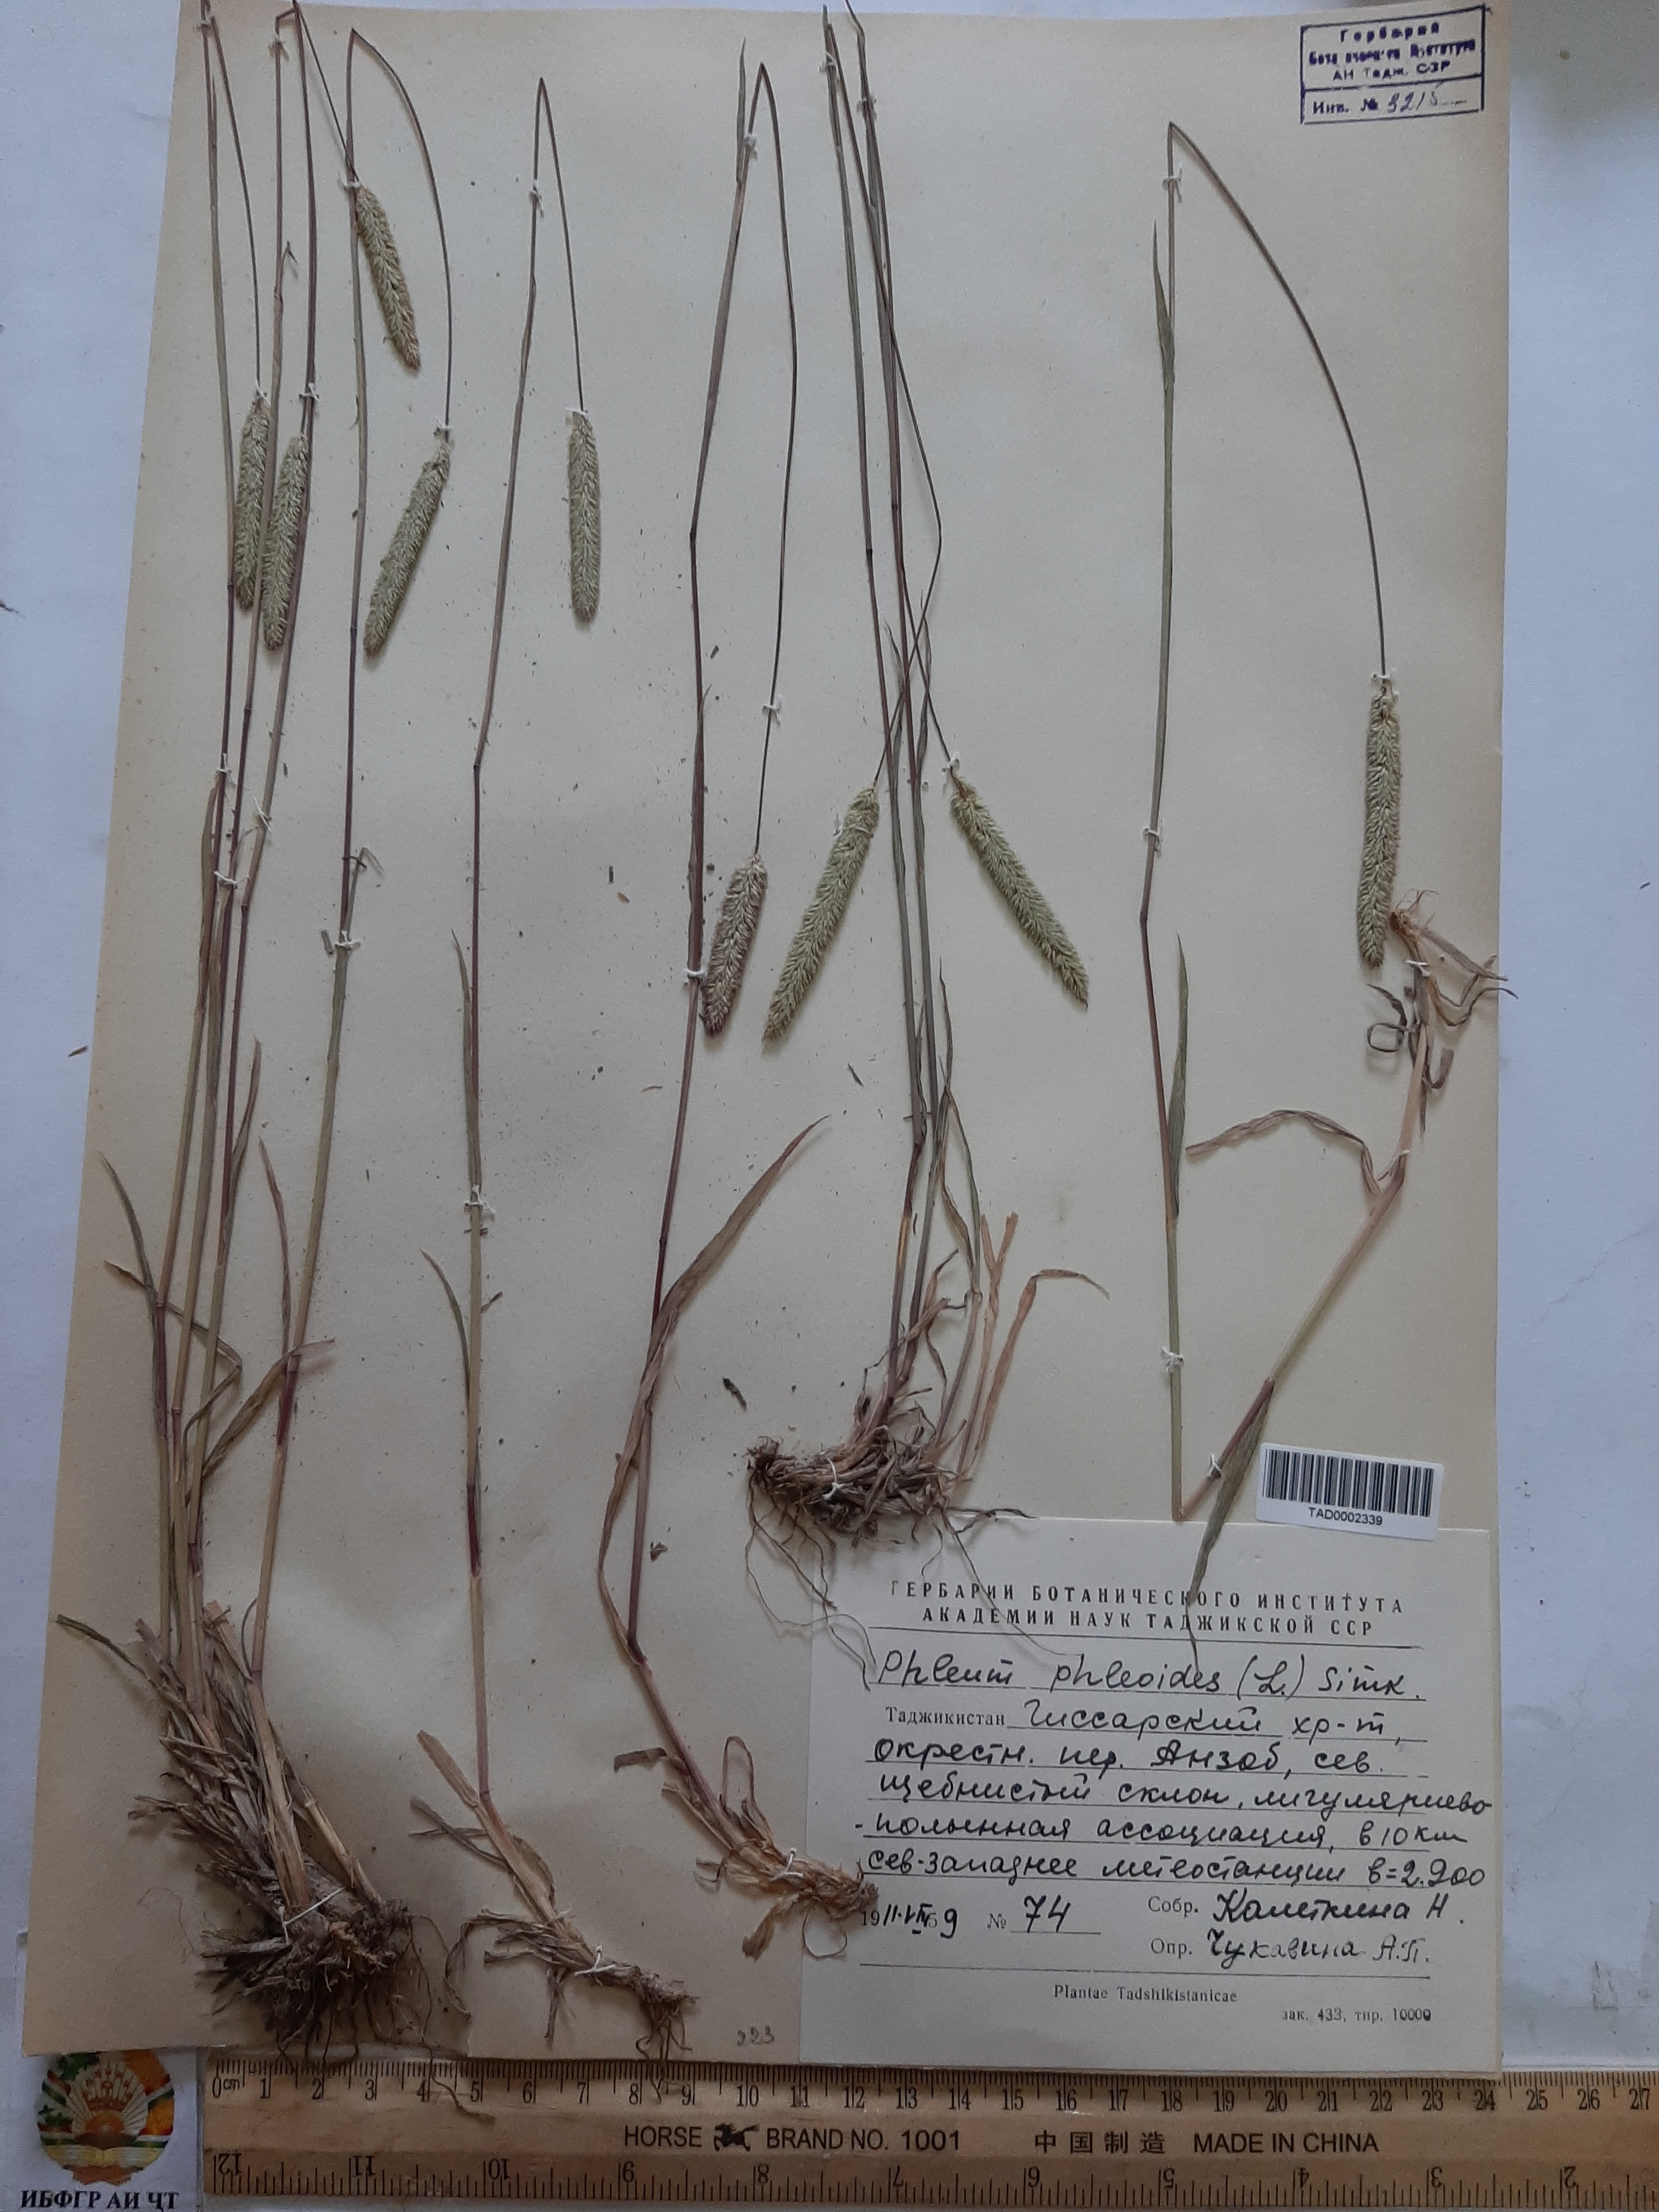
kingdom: Plantae
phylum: Tracheophyta
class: Liliopsida
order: Poales
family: Poaceae
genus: Phleum
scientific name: Phleum phleoides
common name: Purple-stem cat's-tail
